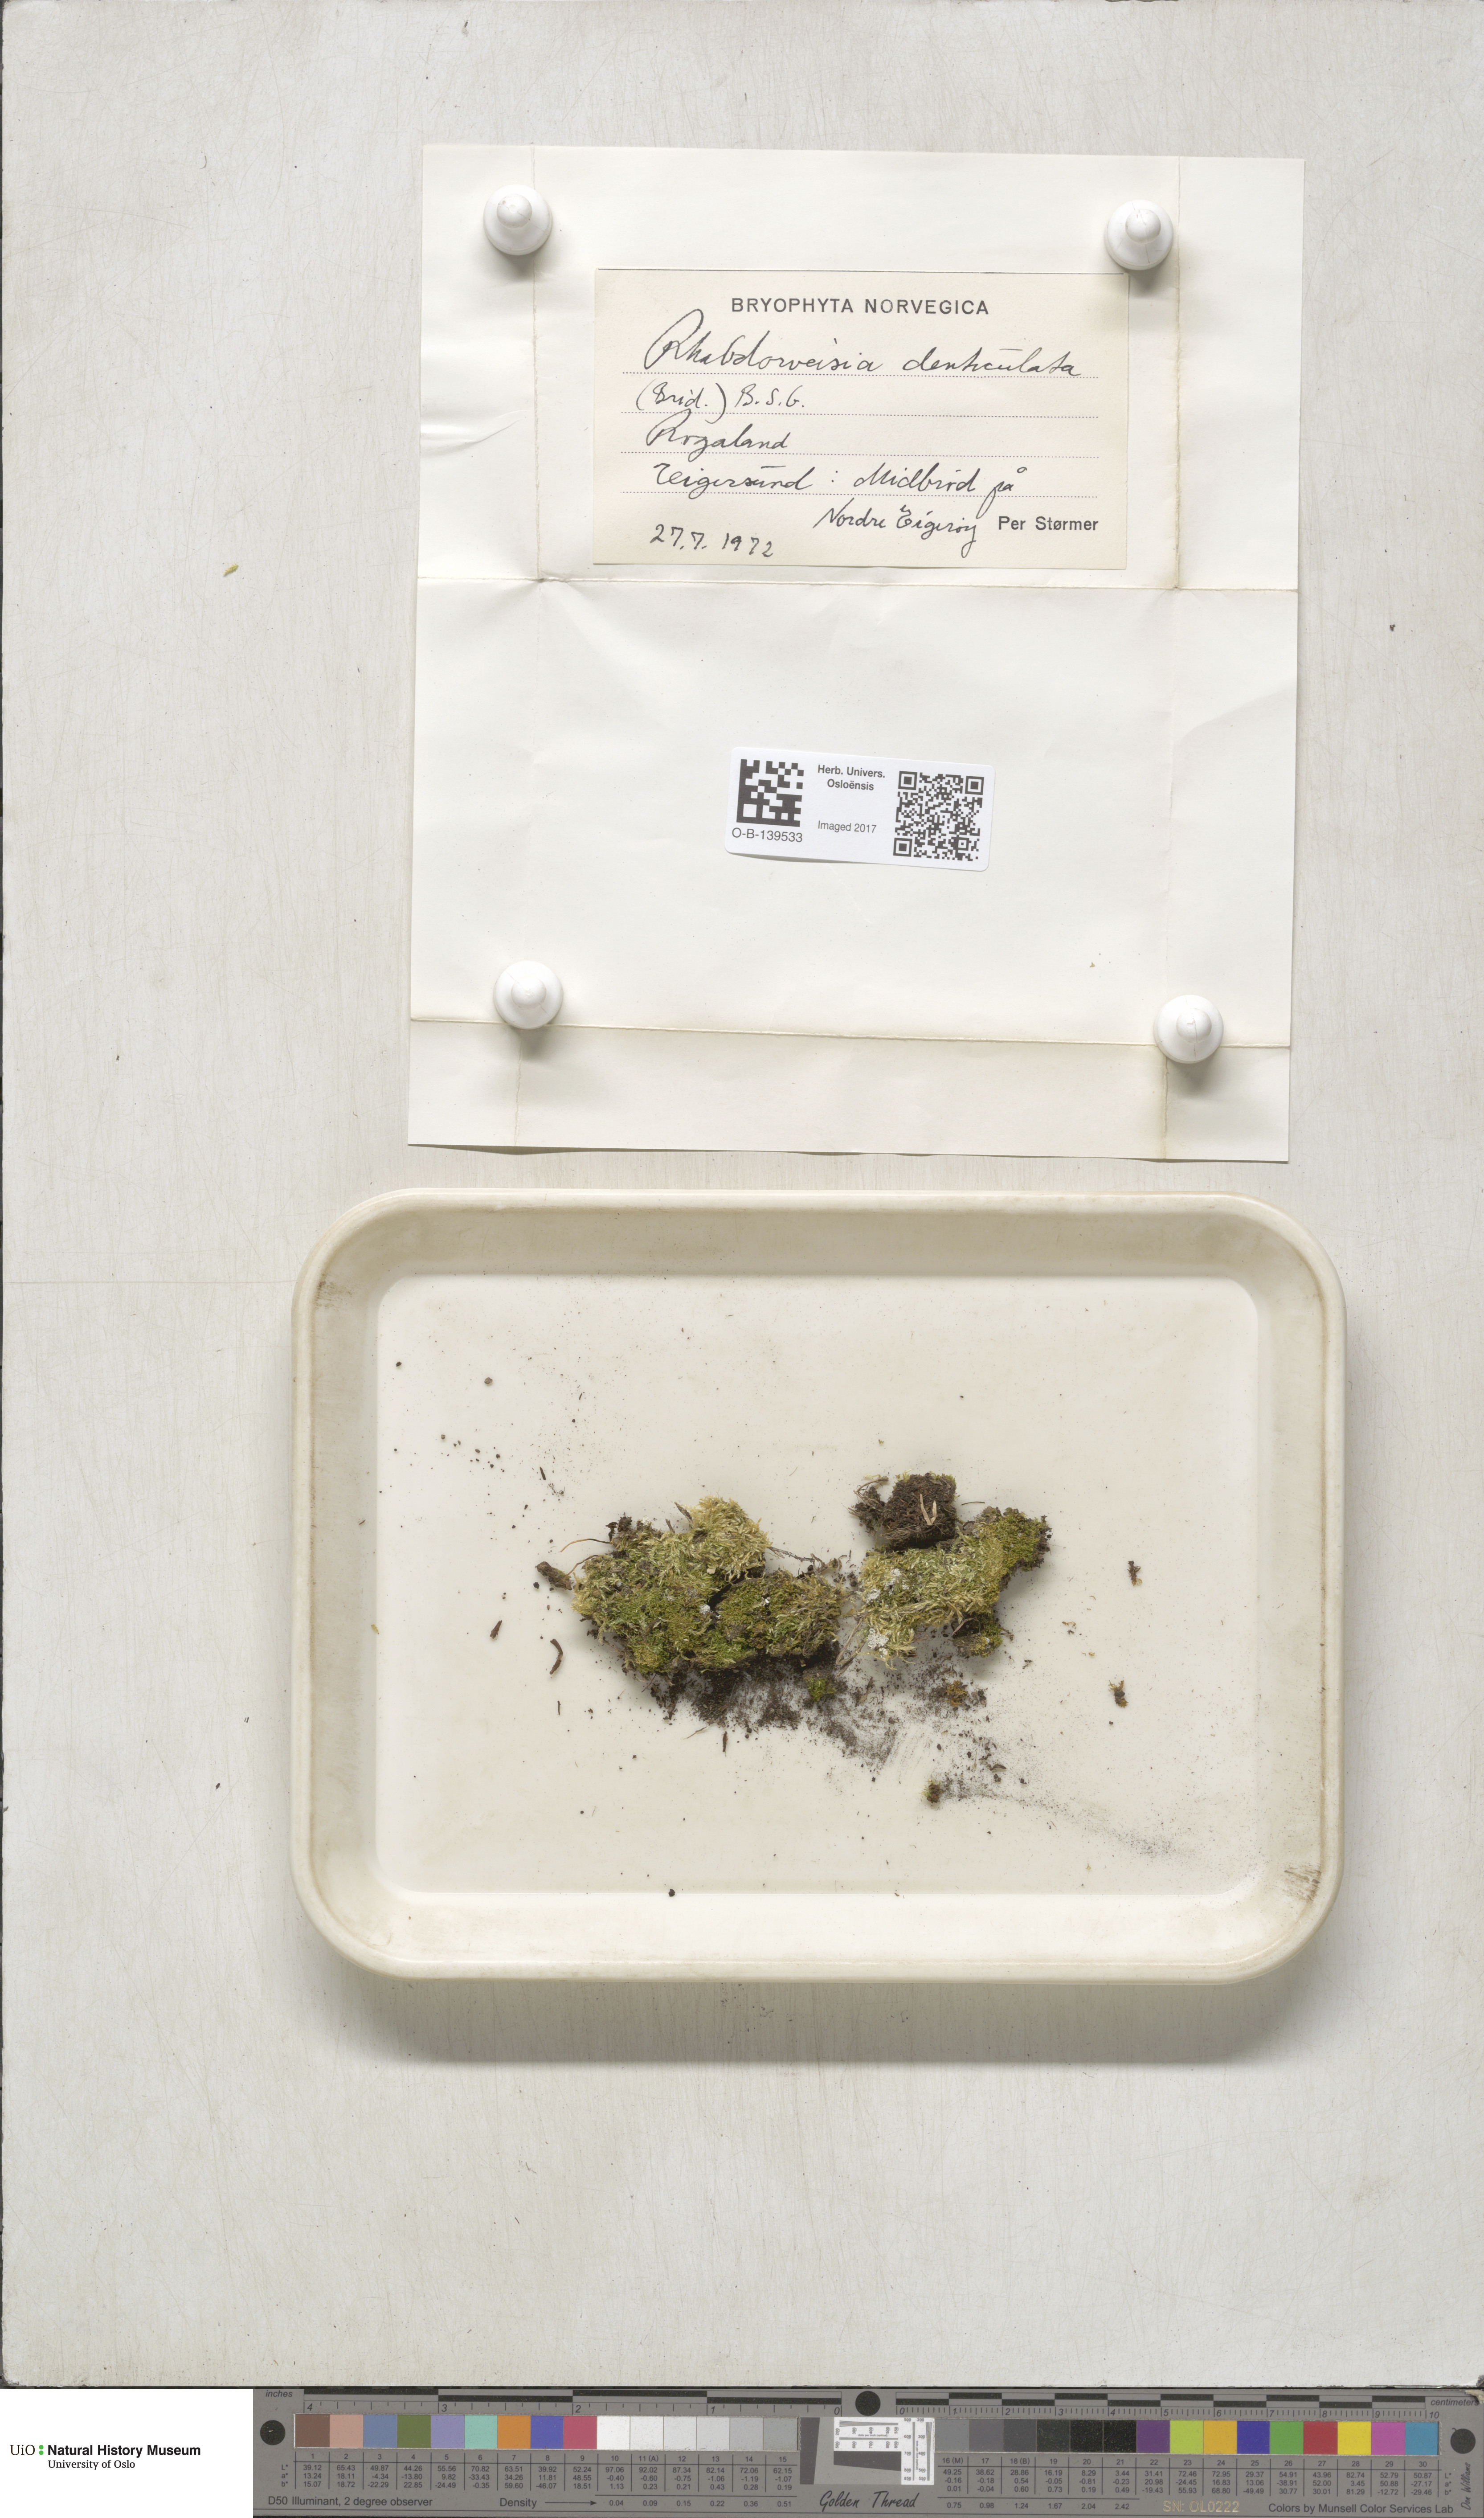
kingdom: Plantae
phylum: Bryophyta
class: Bryopsida
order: Dicranales
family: Rhabdoweisiaceae
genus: Rhabdoweisia
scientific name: Rhabdoweisia crispata
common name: Fine-toothed streak moss
